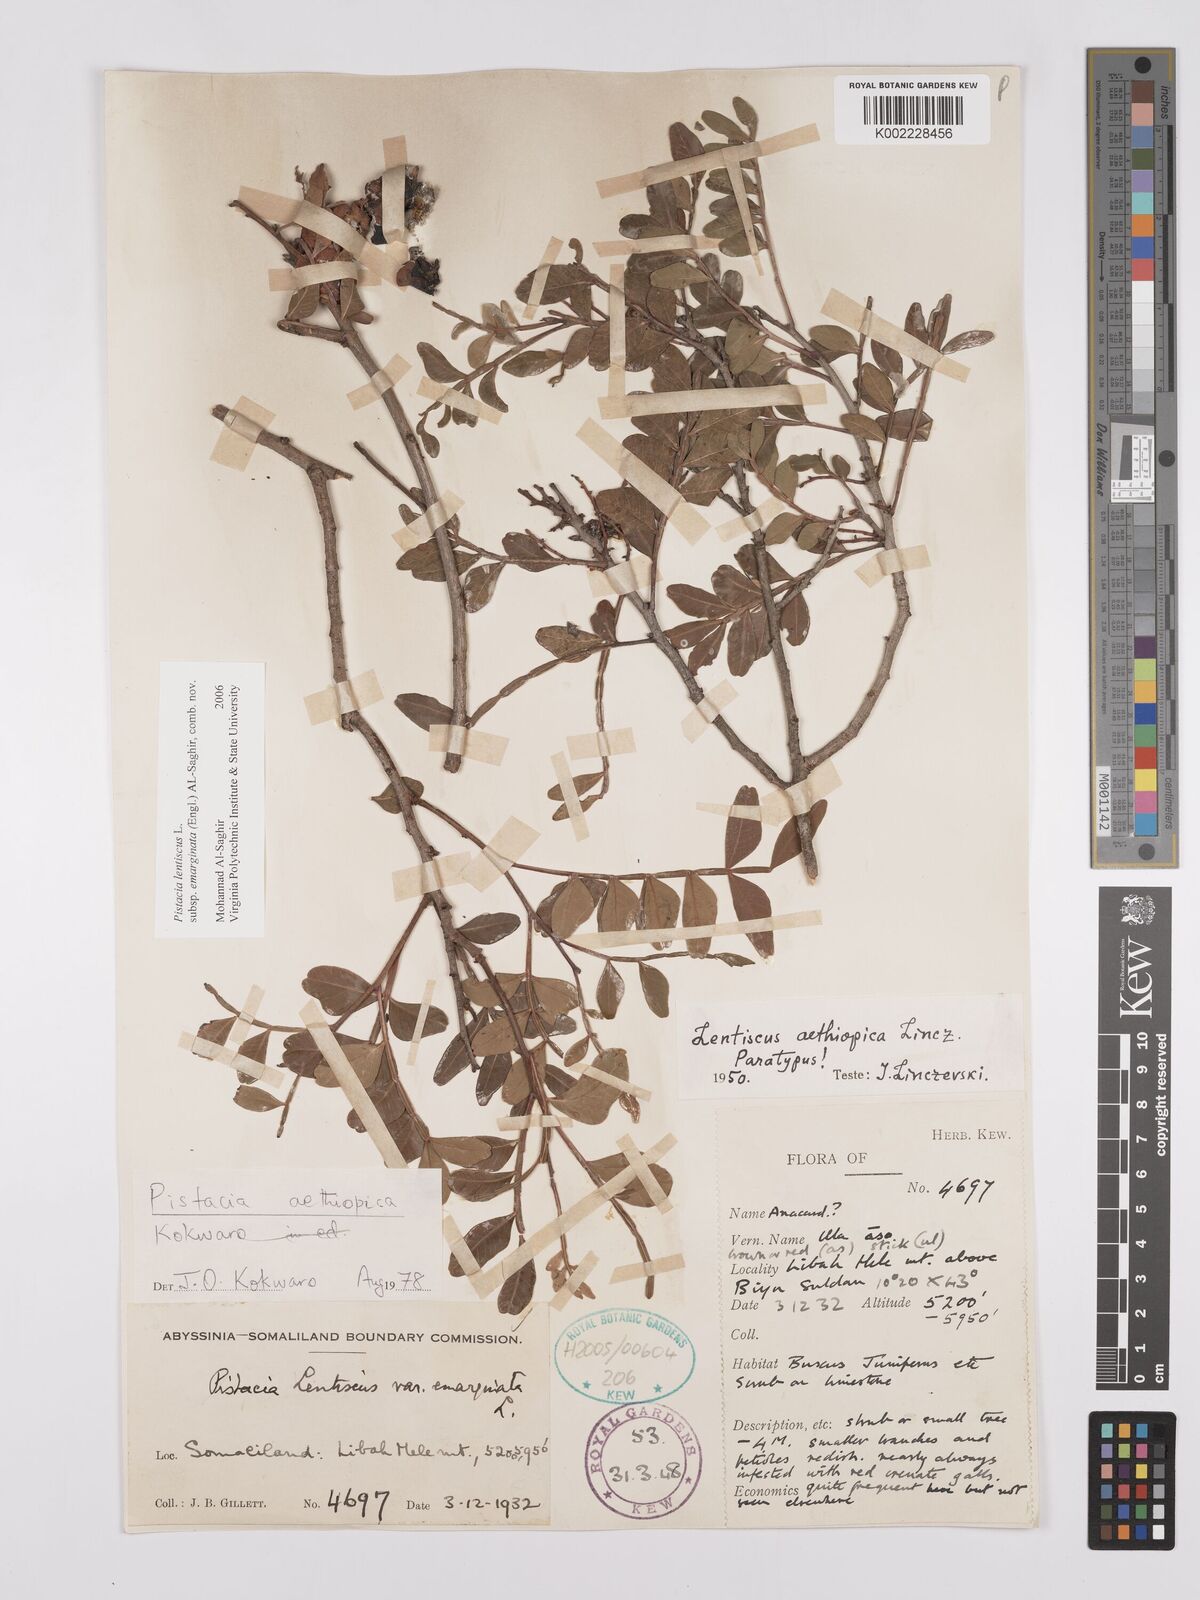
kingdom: Plantae
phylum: Tracheophyta
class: Magnoliopsida
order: Sapindales
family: Anacardiaceae
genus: Pistacia
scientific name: Pistacia lentiscus
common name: Lentisk
